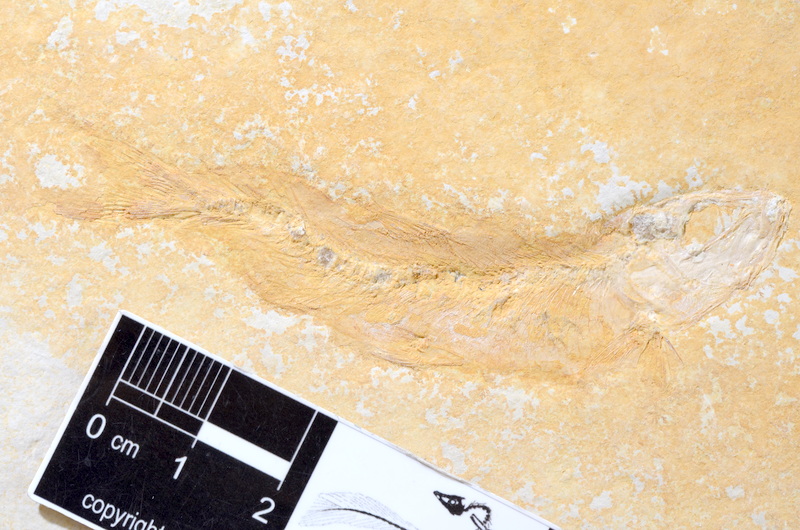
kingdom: Animalia
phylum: Chordata
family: Ascalaboidae
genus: Tharsis
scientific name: Tharsis dubius
